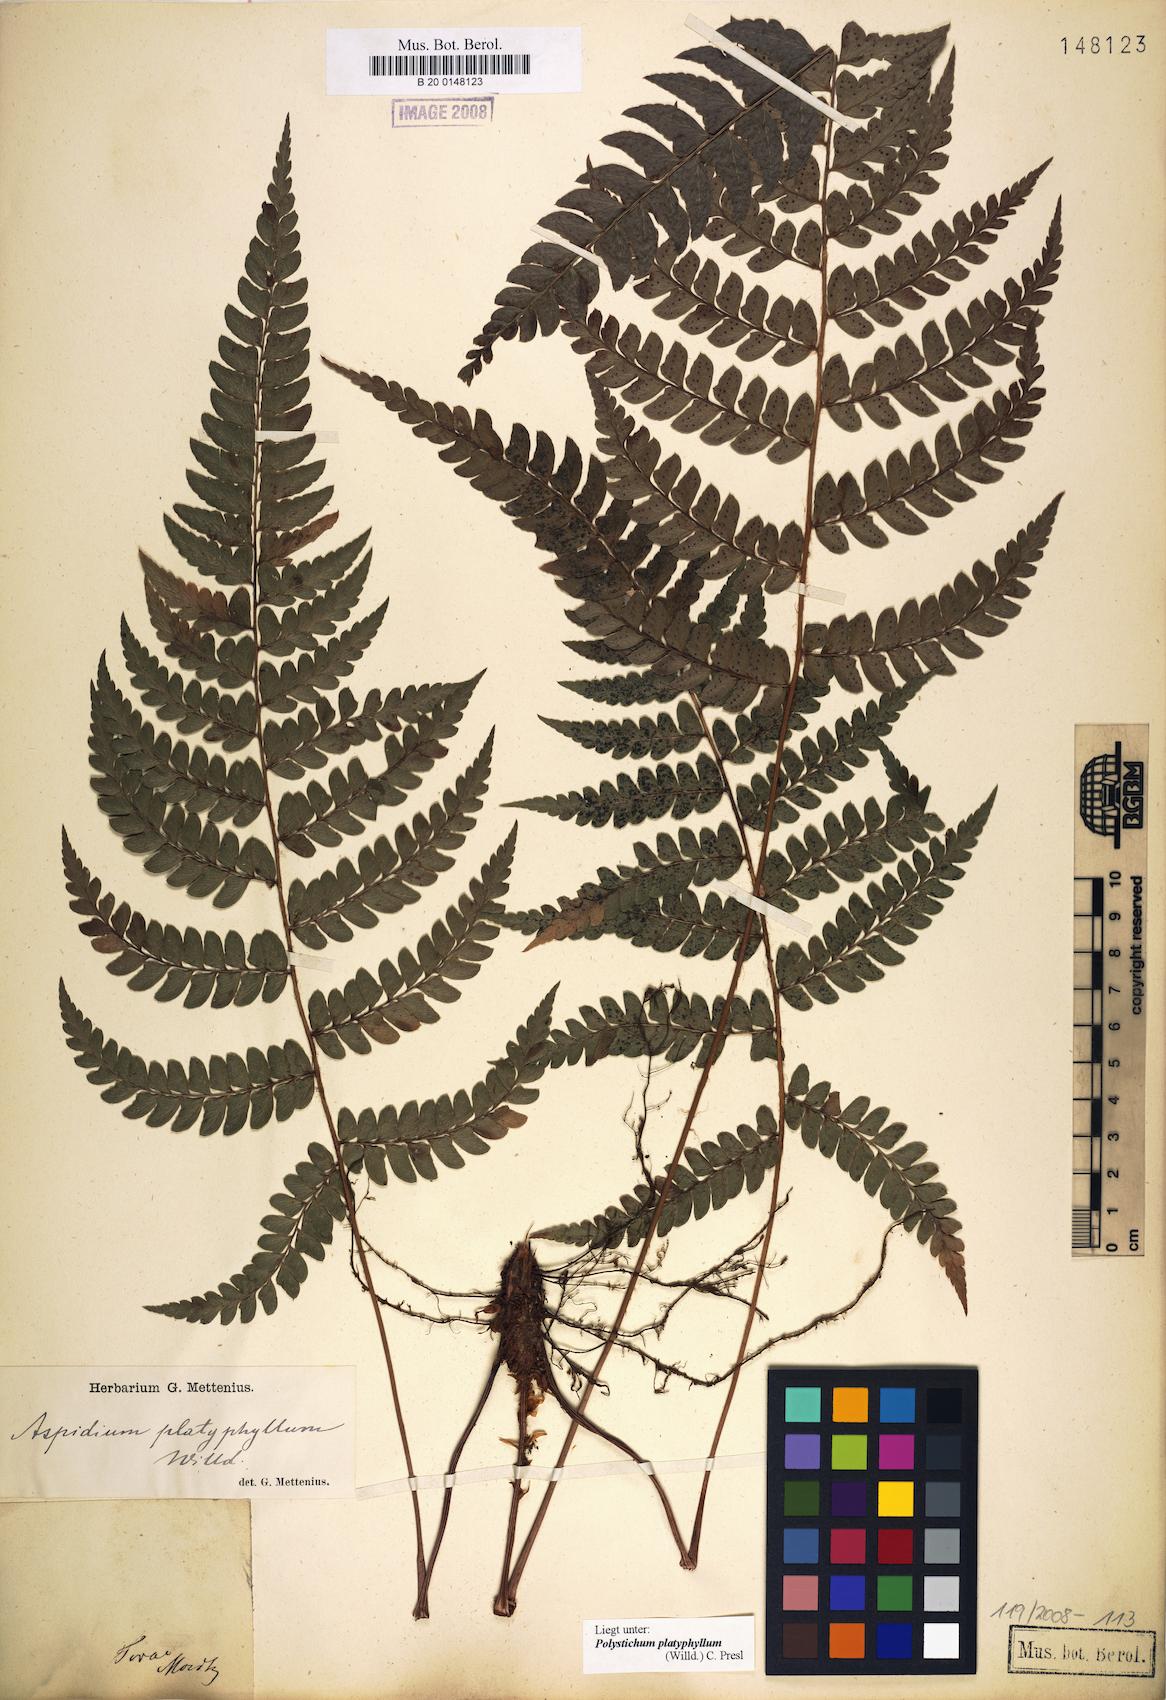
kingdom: Plantae
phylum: Tracheophyta
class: Polypodiopsida
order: Polypodiales
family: Dryopteridaceae
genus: Polystichum
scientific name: Polystichum platyphyllum
